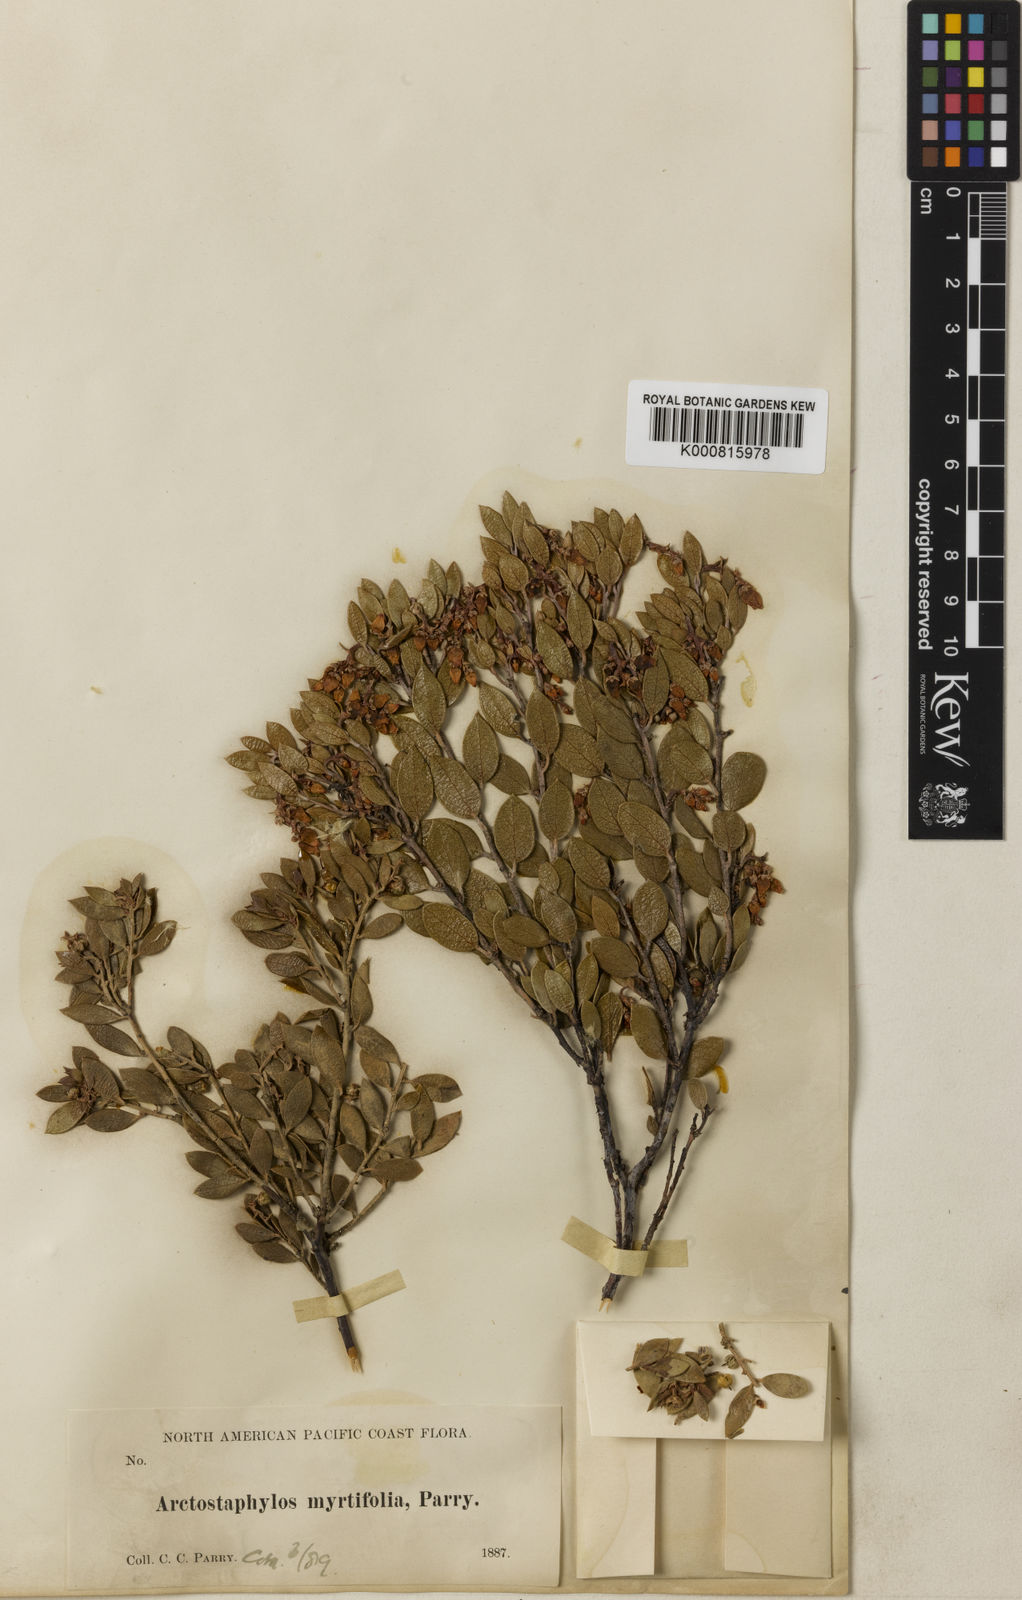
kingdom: Plantae
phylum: Tracheophyta
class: Magnoliopsida
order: Ericales
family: Ericaceae
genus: Arctostaphylos
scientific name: Arctostaphylos myrtifolia
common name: Ione manzanita
